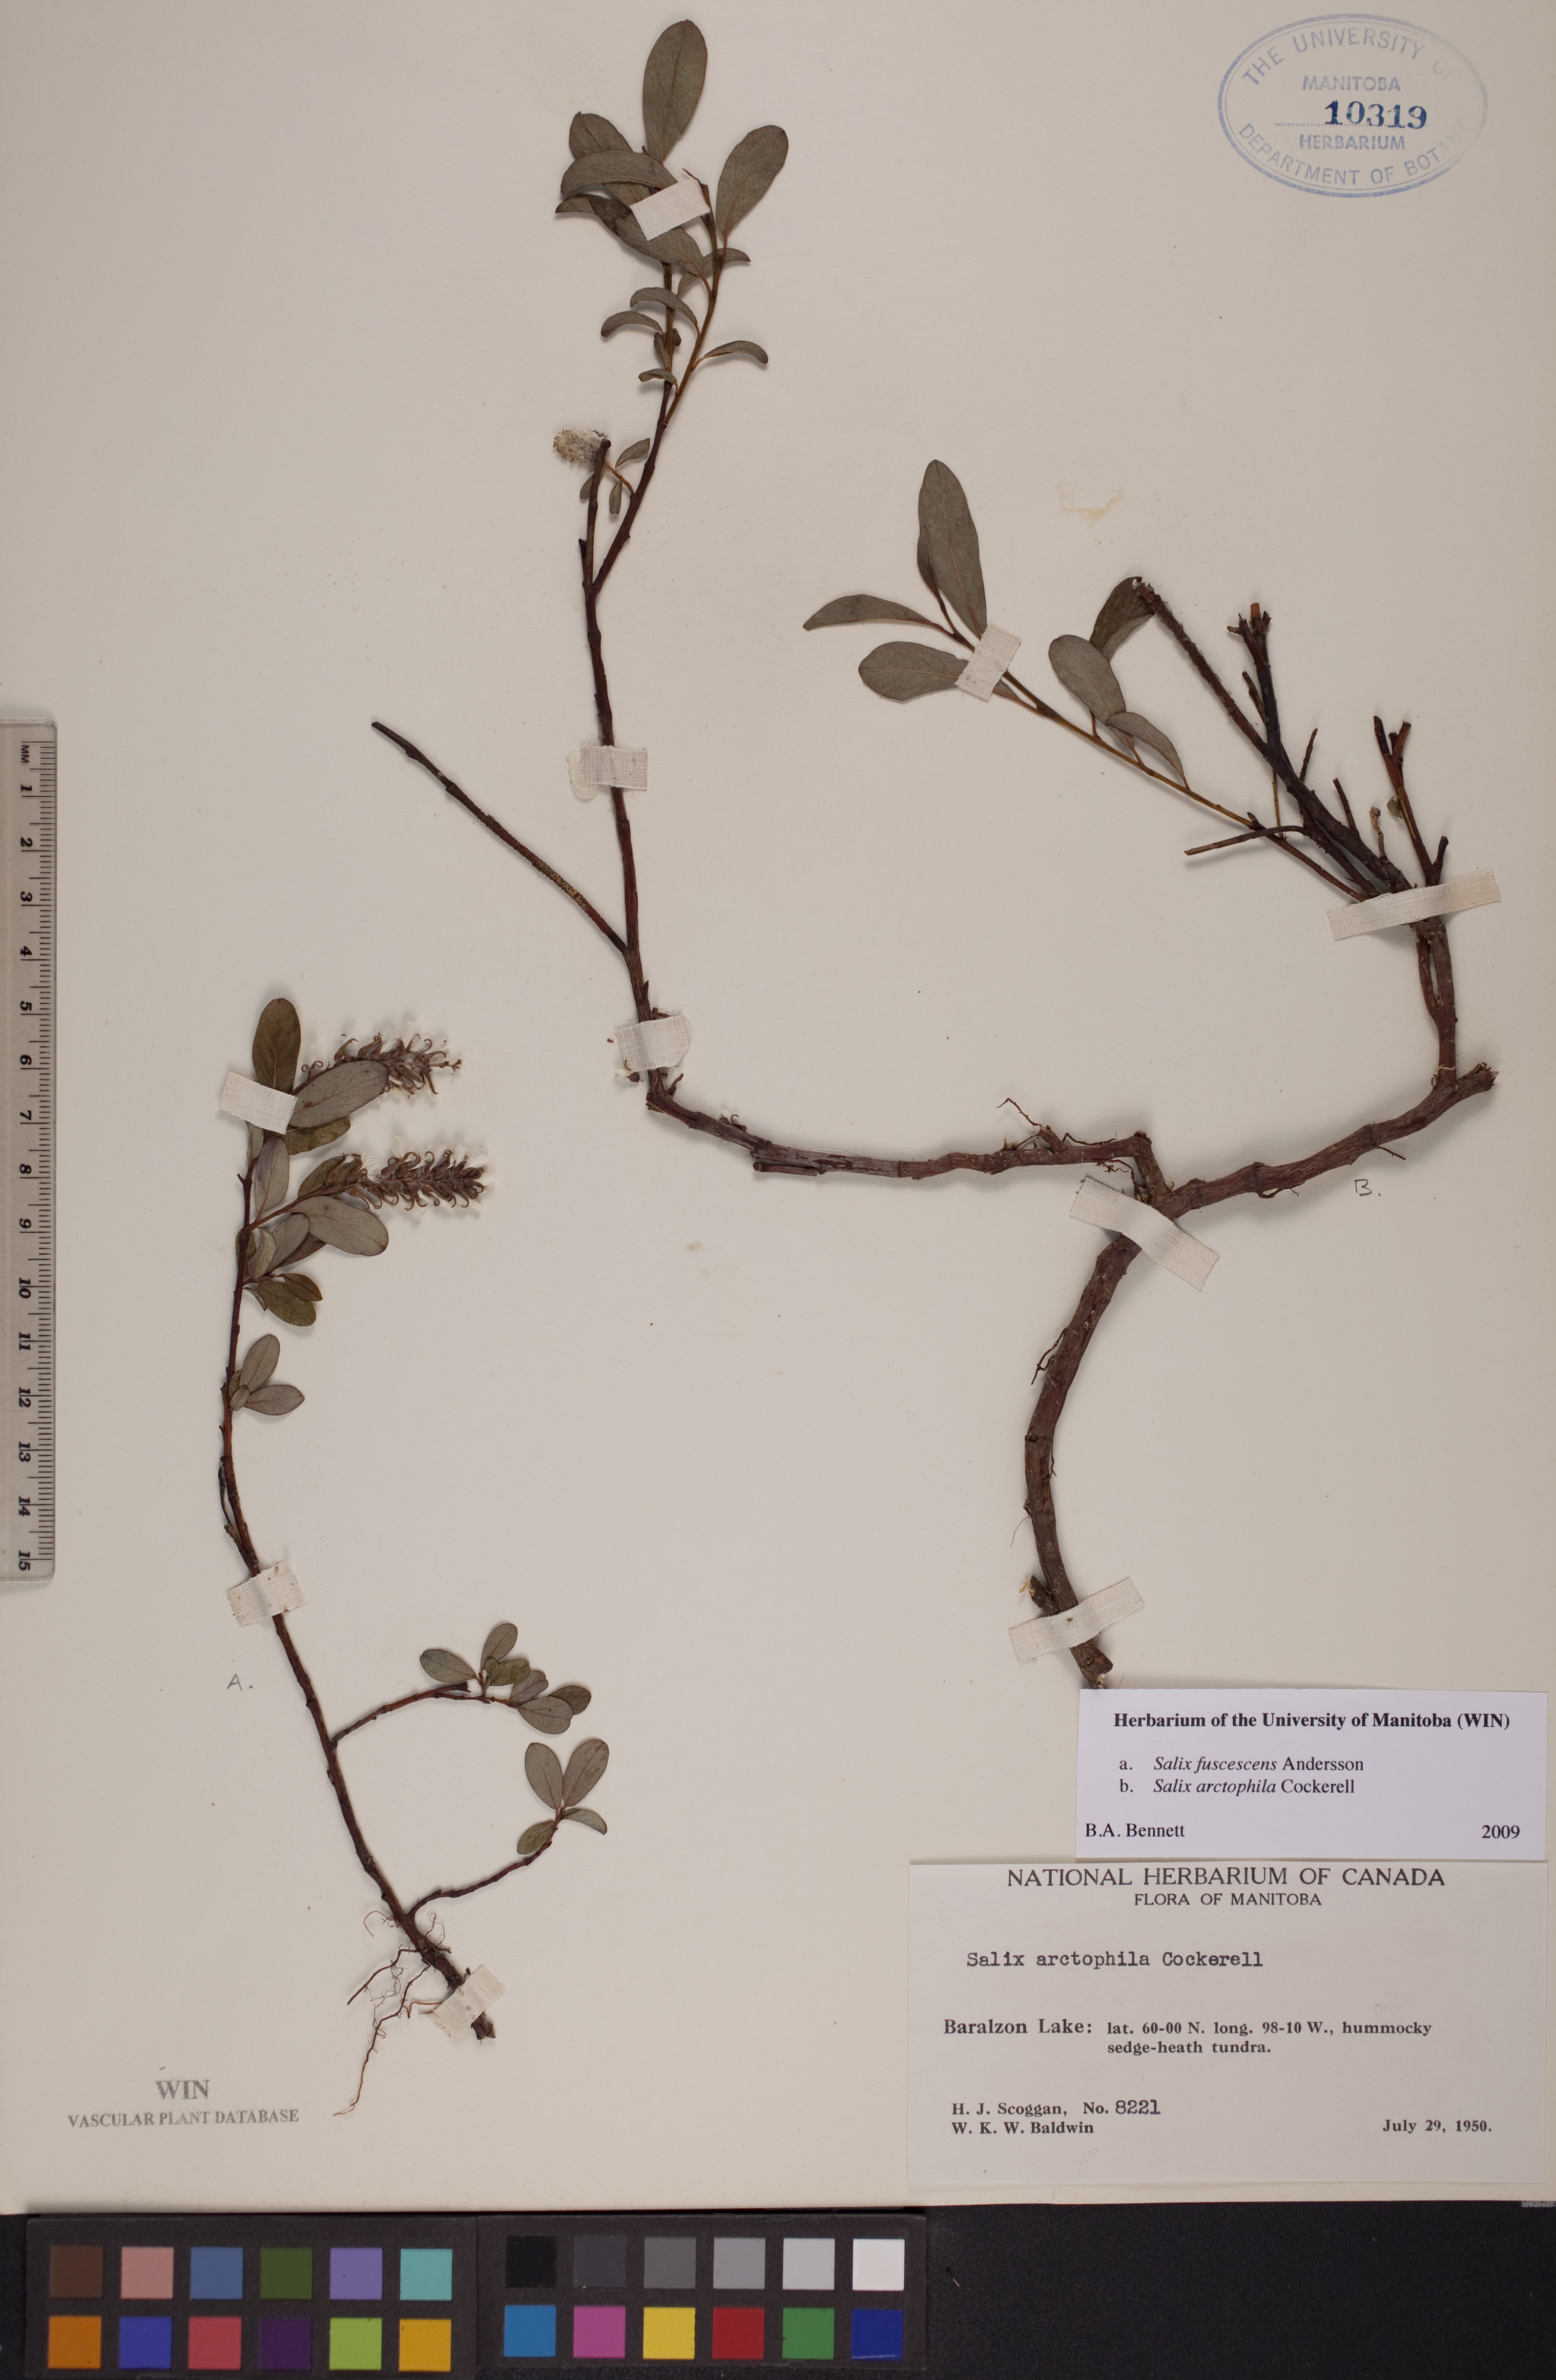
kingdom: Plantae
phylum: Tracheophyta
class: Magnoliopsida
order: Malpighiales
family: Salicaceae
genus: Salix
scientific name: Salix arctophila
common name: Greenland willow
